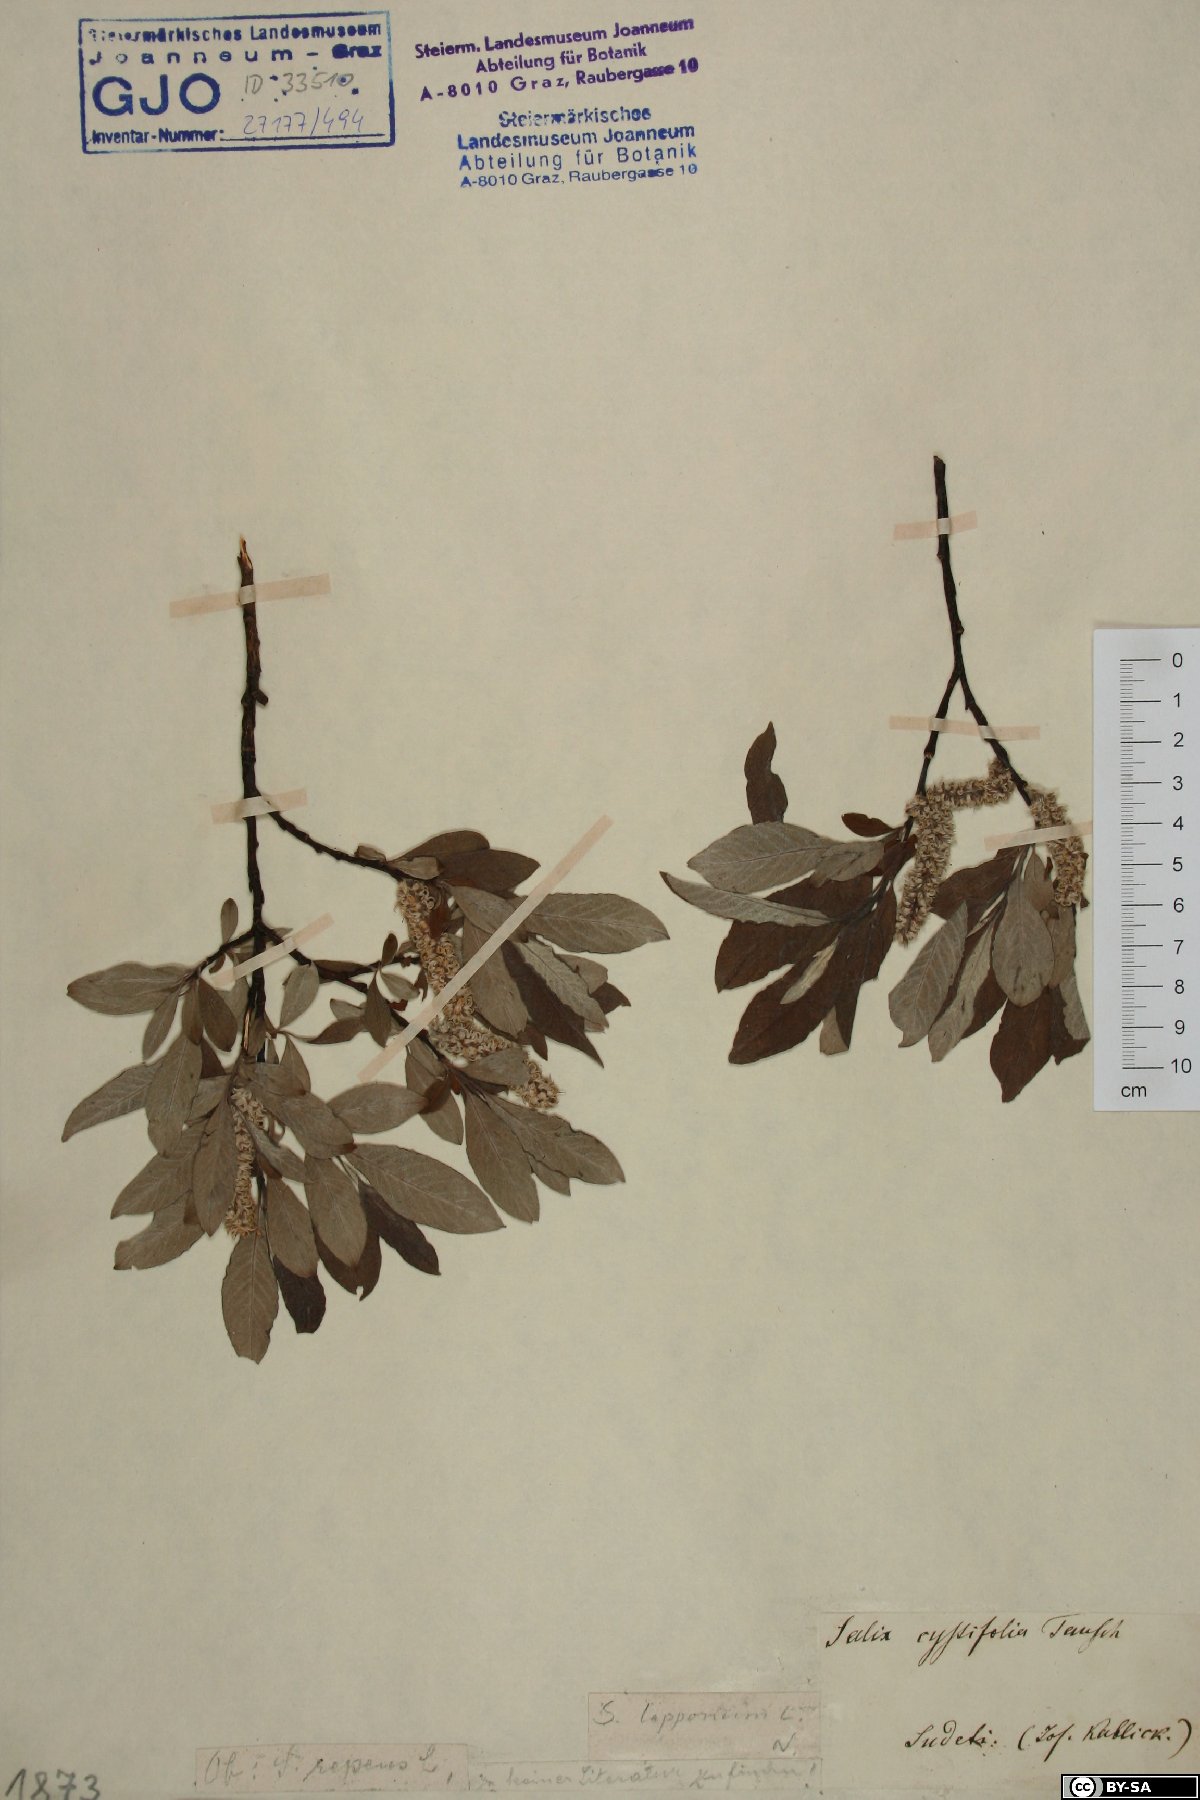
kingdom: Plantae
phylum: Tracheophyta
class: Magnoliopsida
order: Malpighiales
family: Salicaceae
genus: Salix
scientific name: Salix lapponum
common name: Downy willow
